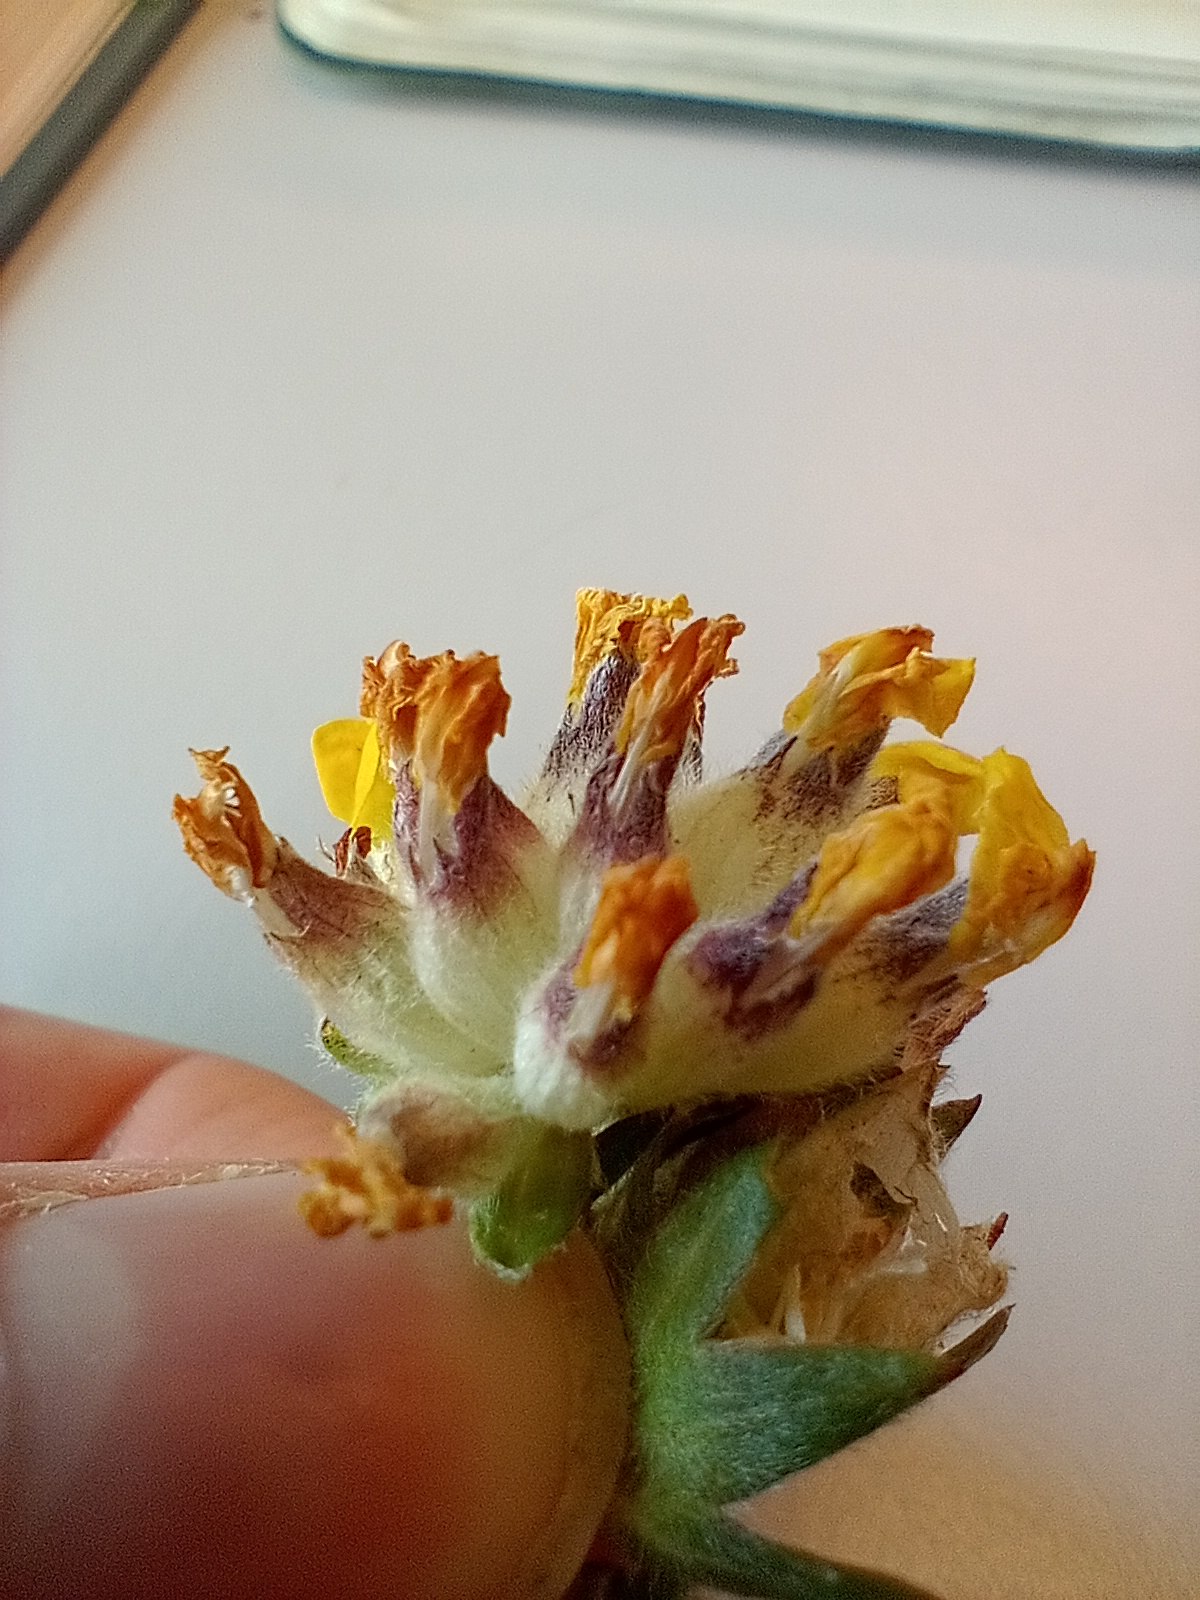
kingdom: Plantae
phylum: Tracheophyta
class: Magnoliopsida
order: Fabales
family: Fabaceae
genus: Anthyllis
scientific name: Anthyllis vulneraria
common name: Rundbælg
